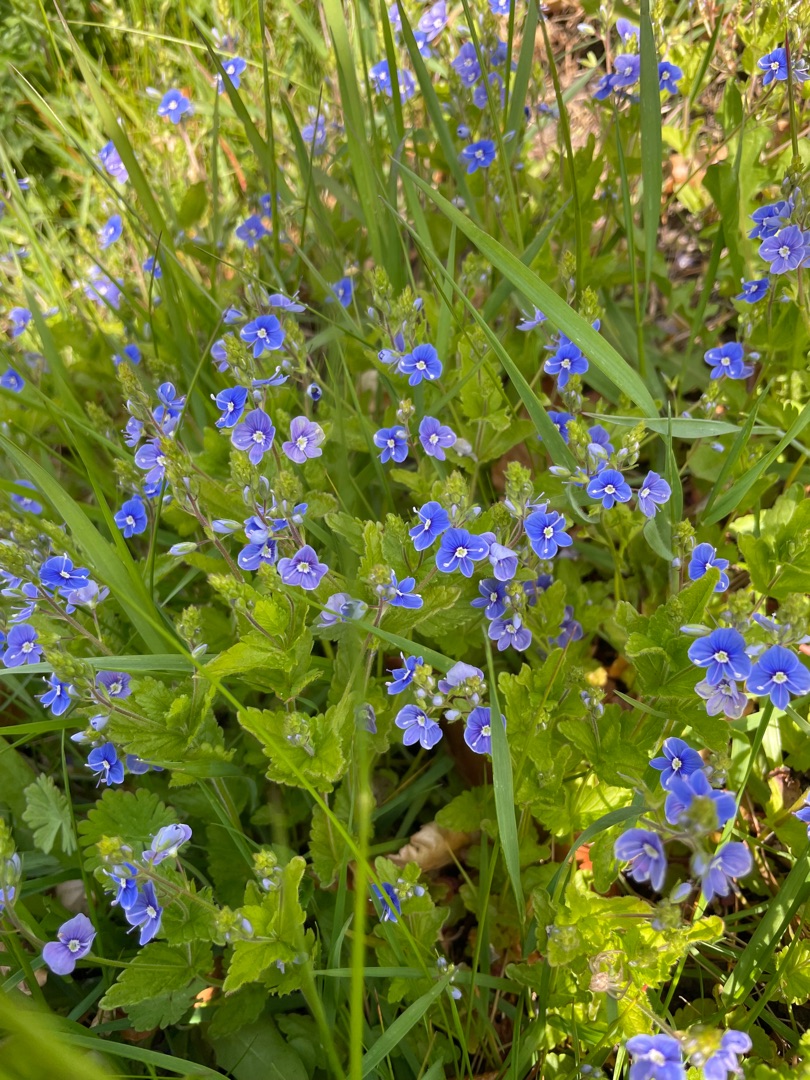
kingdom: Plantae
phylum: Tracheophyta
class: Magnoliopsida
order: Lamiales
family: Plantaginaceae
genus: Veronica
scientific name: Veronica chamaedrys
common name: Tveskægget ærenpris
